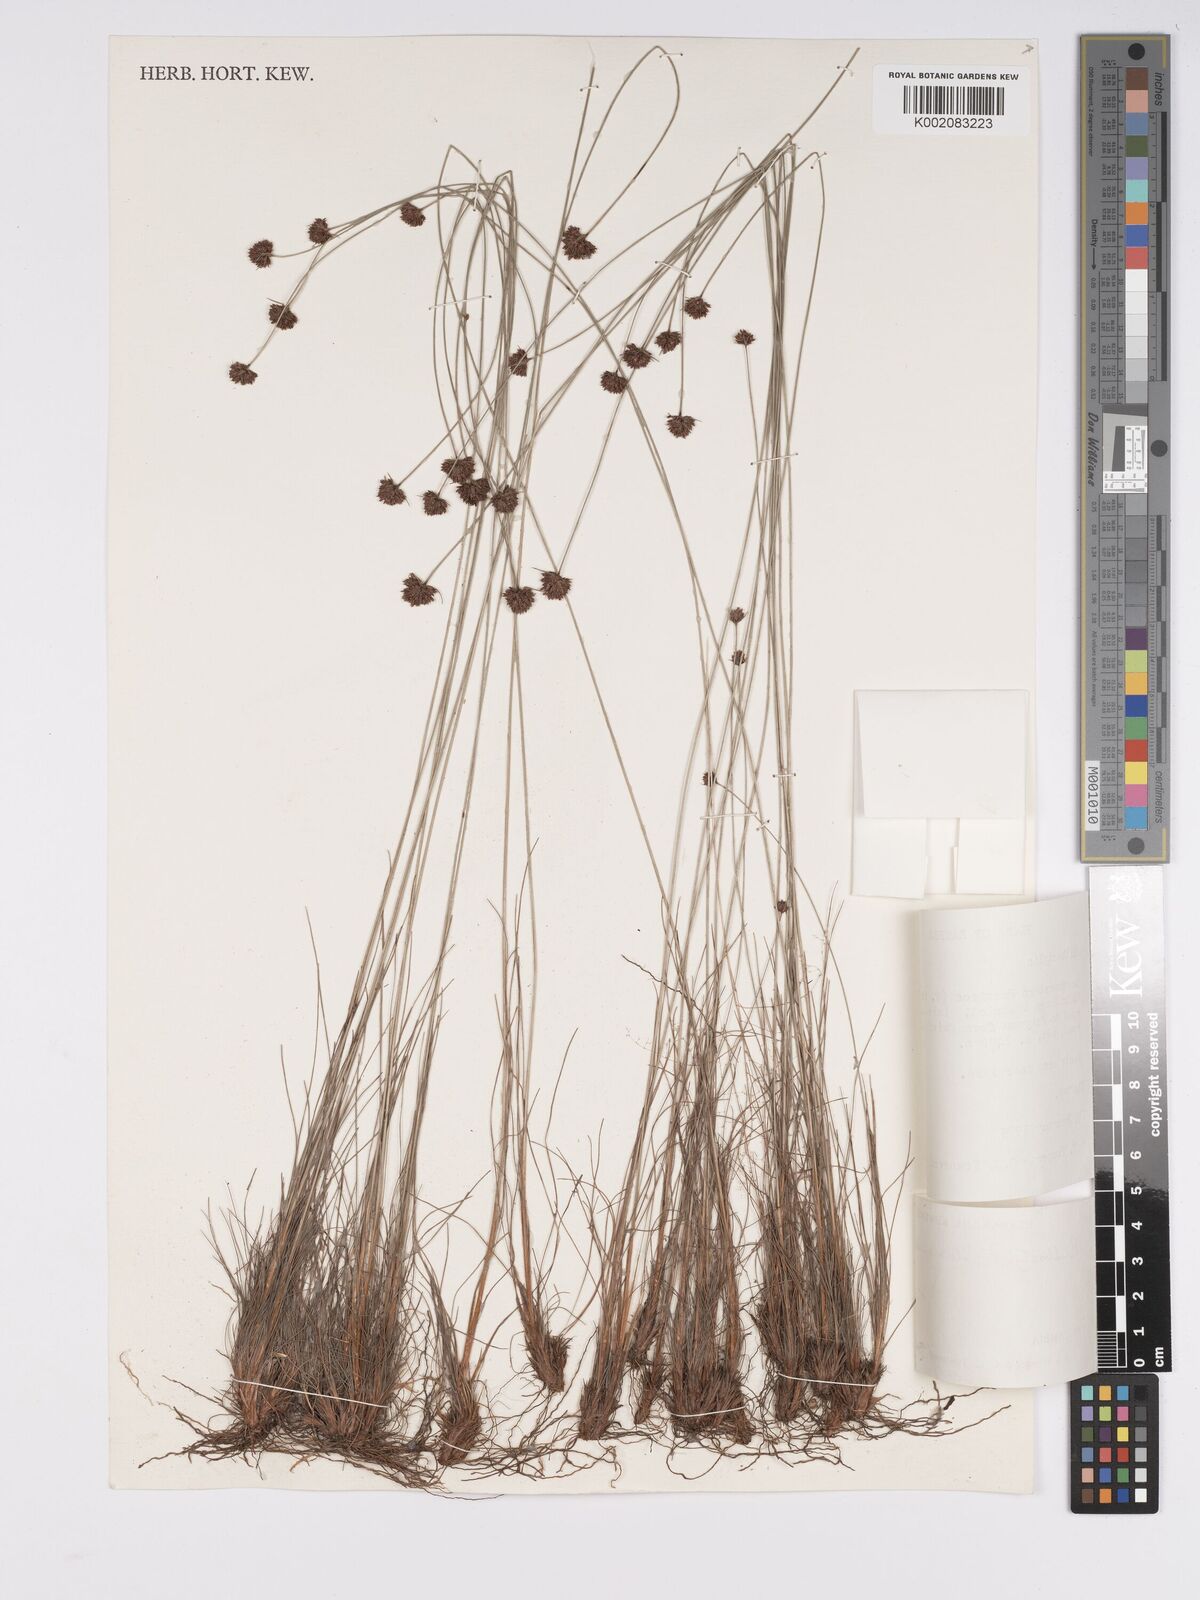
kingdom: Plantae
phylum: Tracheophyta
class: Liliopsida
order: Poales
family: Cyperaceae
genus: Bulbostylis
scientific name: Bulbostylis filamentosa
